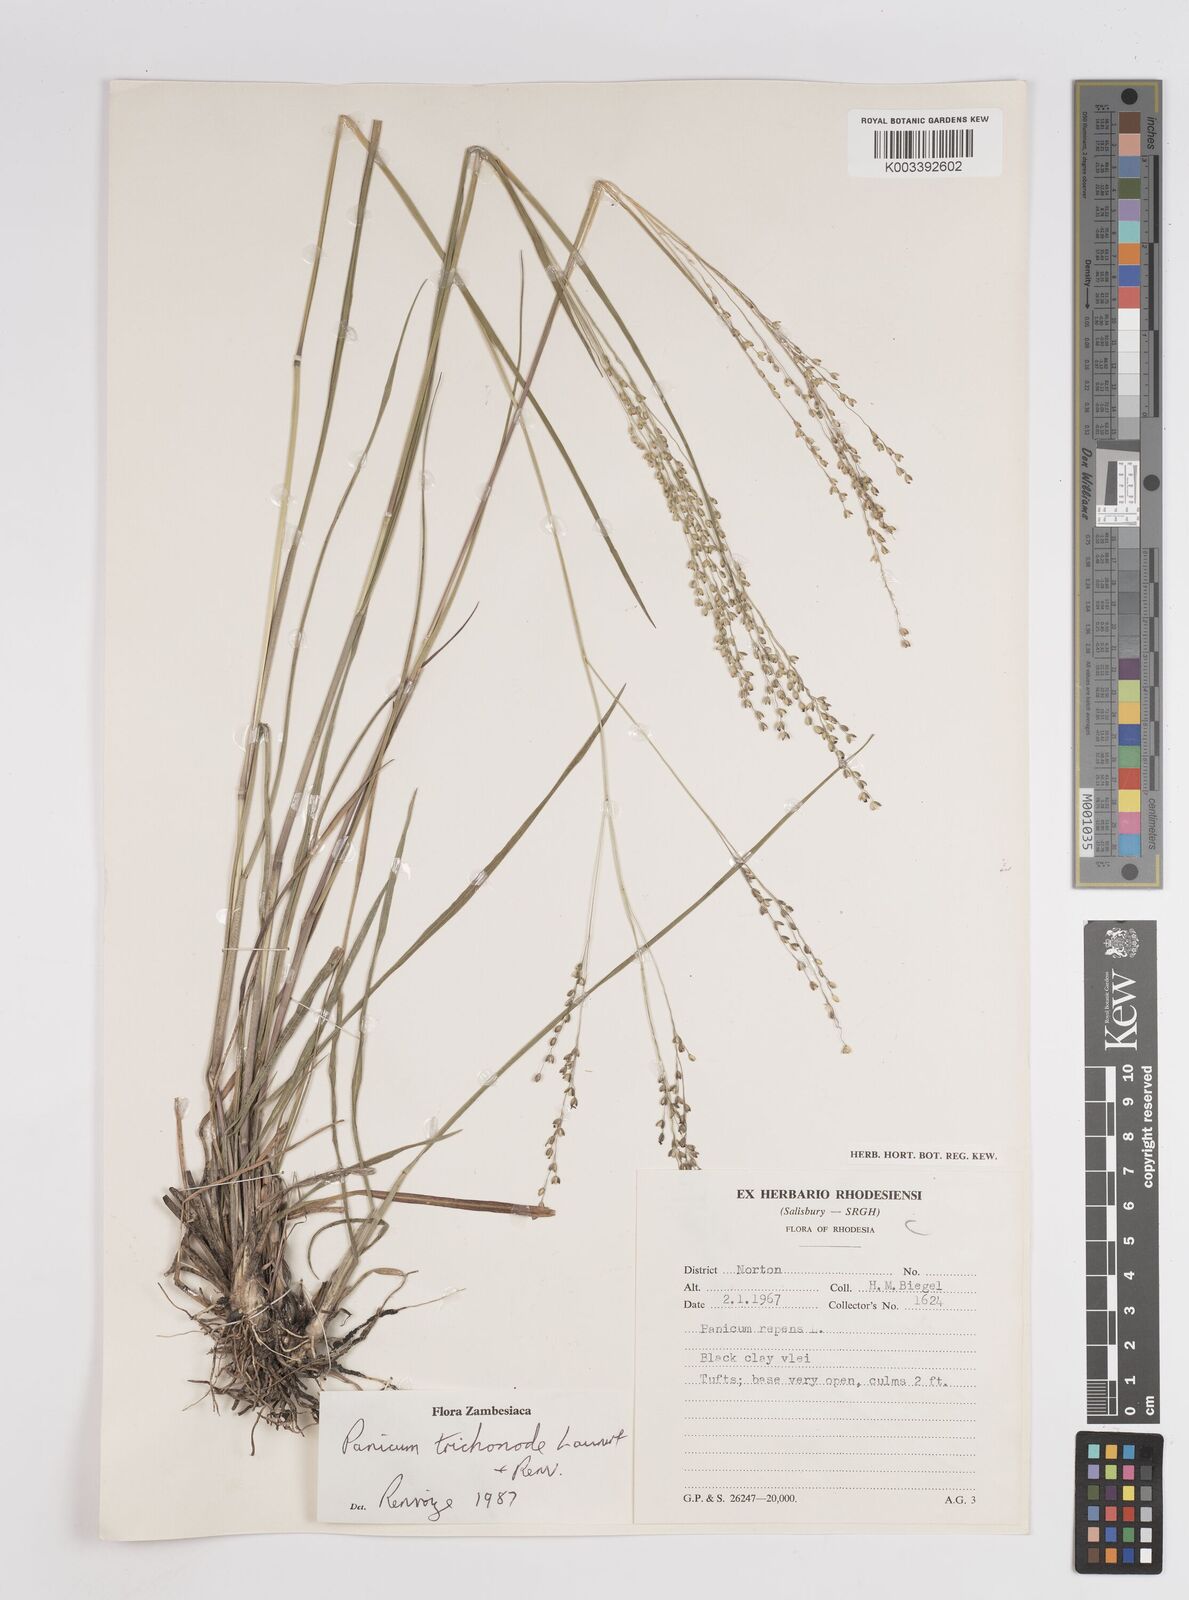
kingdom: Plantae
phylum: Tracheophyta
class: Liliopsida
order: Poales
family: Poaceae
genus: Panicum
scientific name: Panicum trichonode
